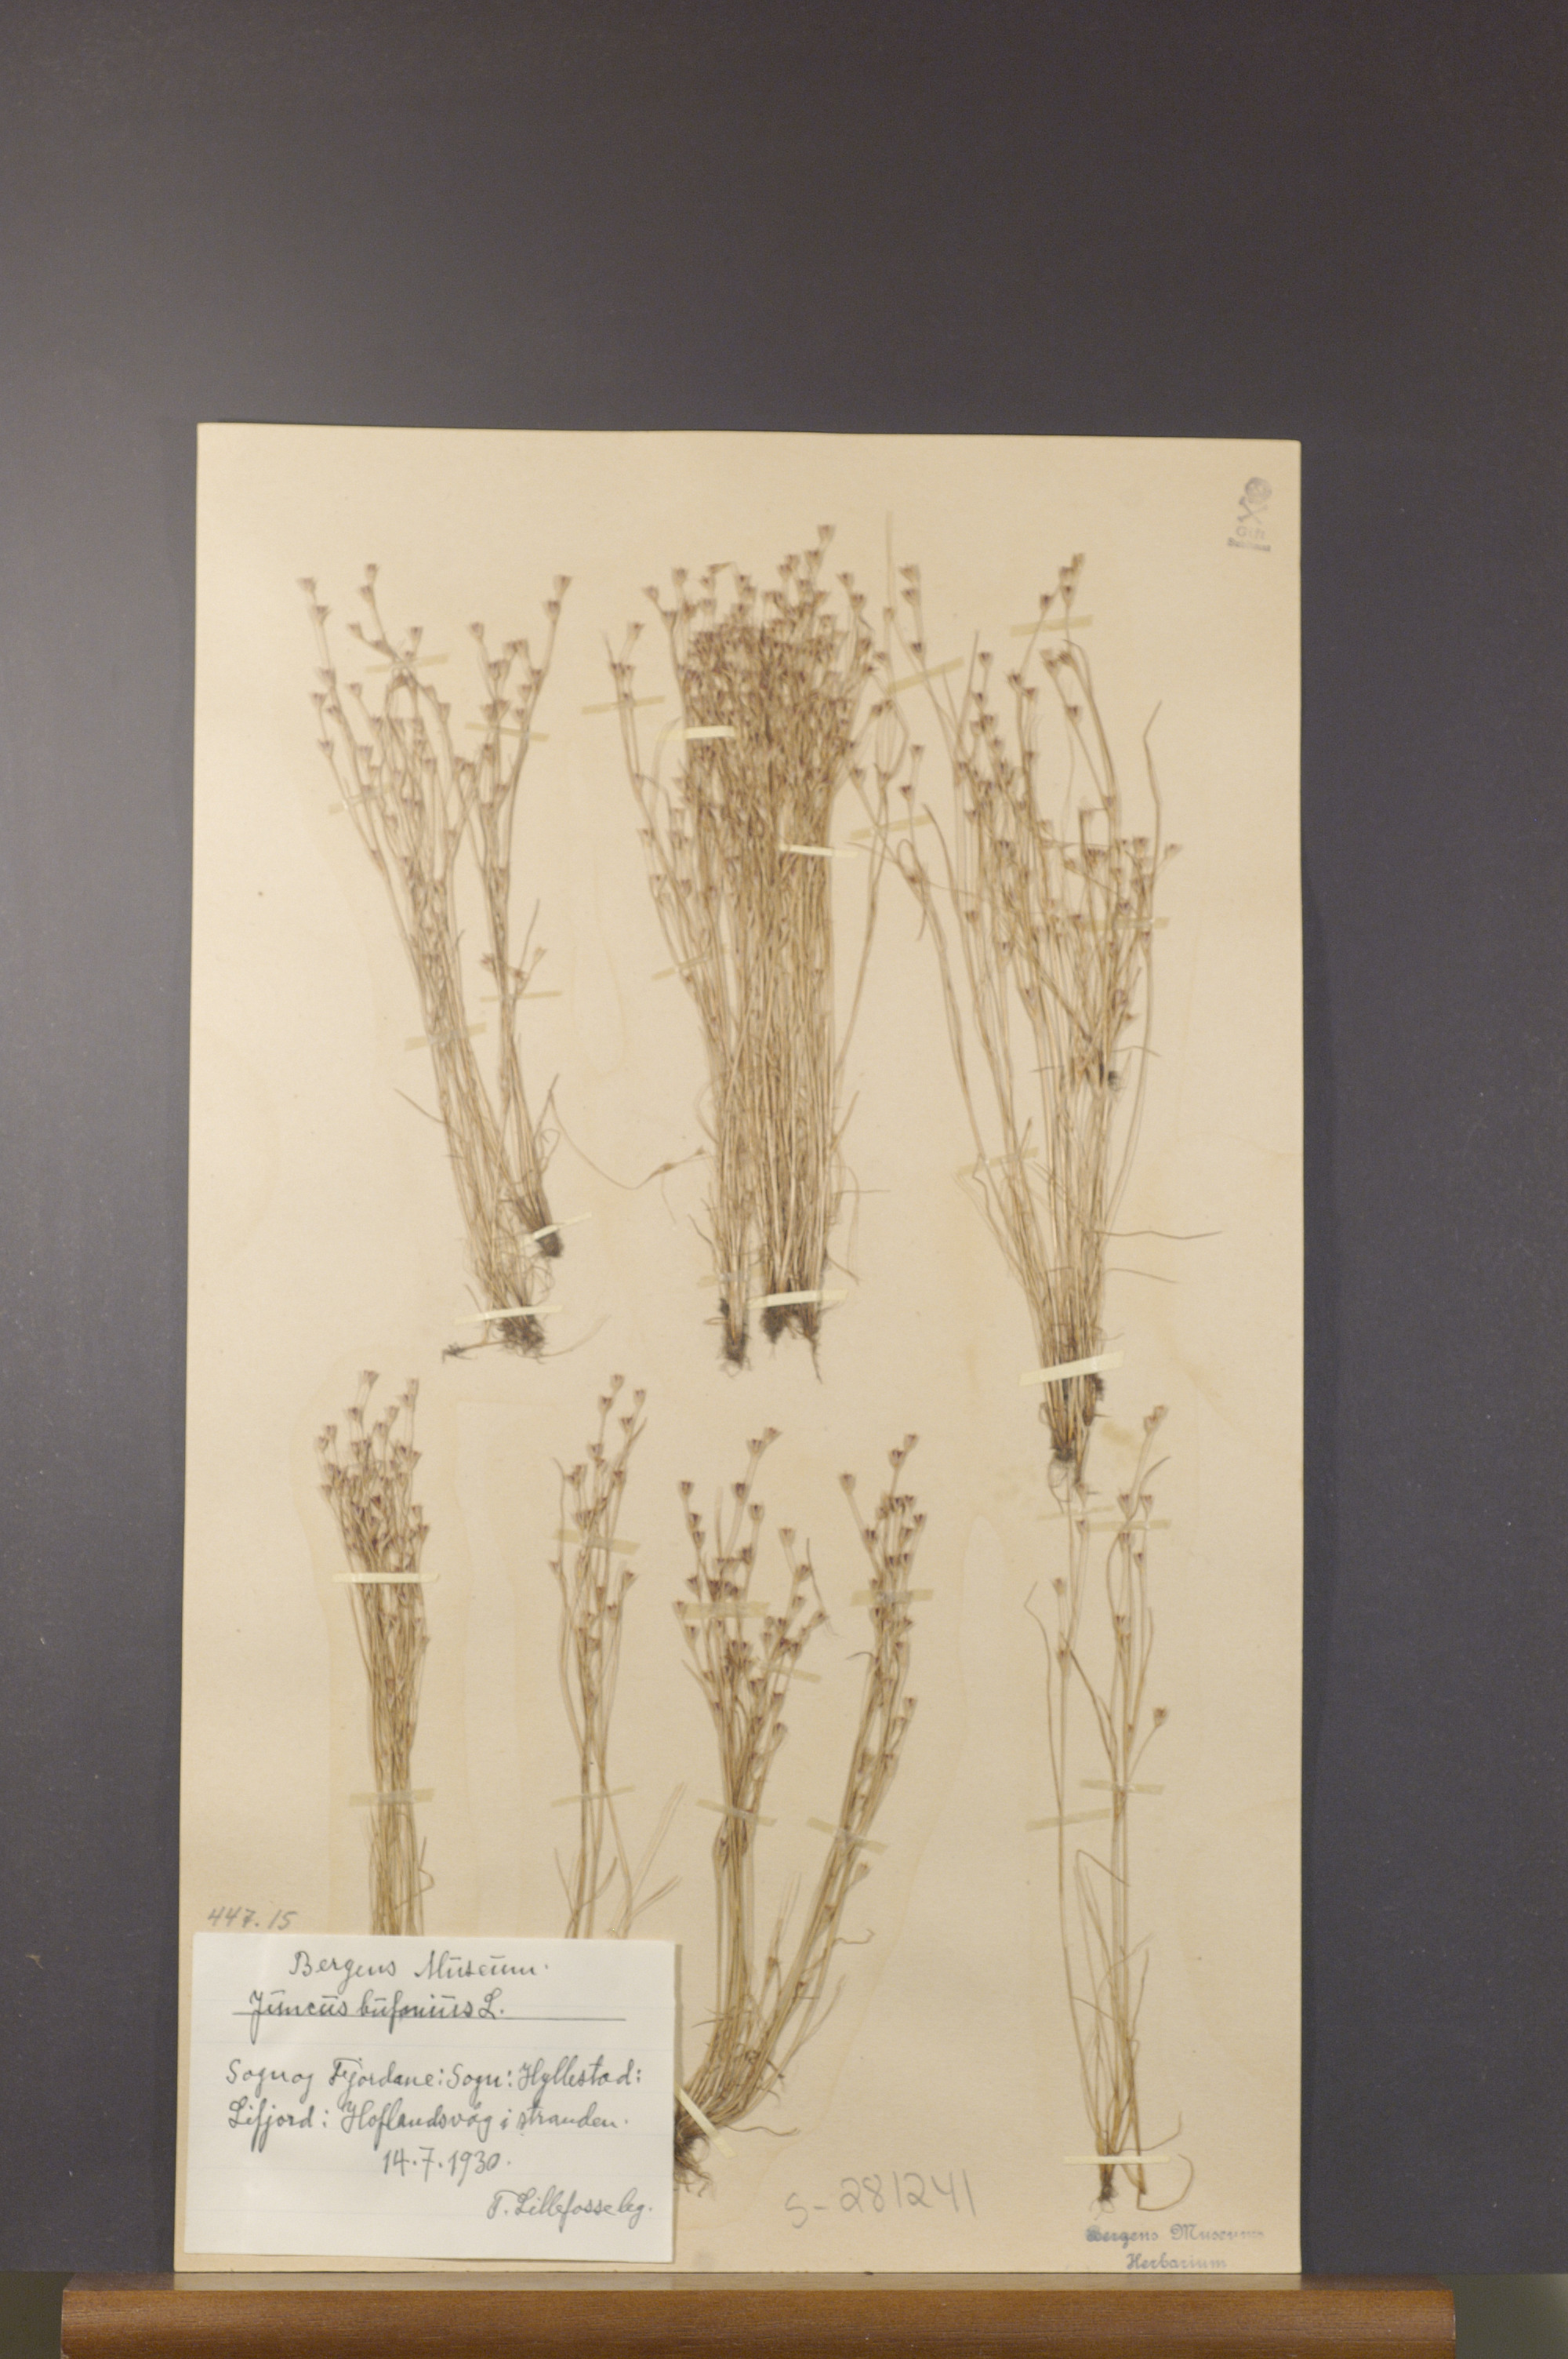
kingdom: Plantae
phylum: Tracheophyta
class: Liliopsida
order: Poales
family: Juncaceae
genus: Juncus
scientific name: Juncus bufonius
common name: Toad rush
